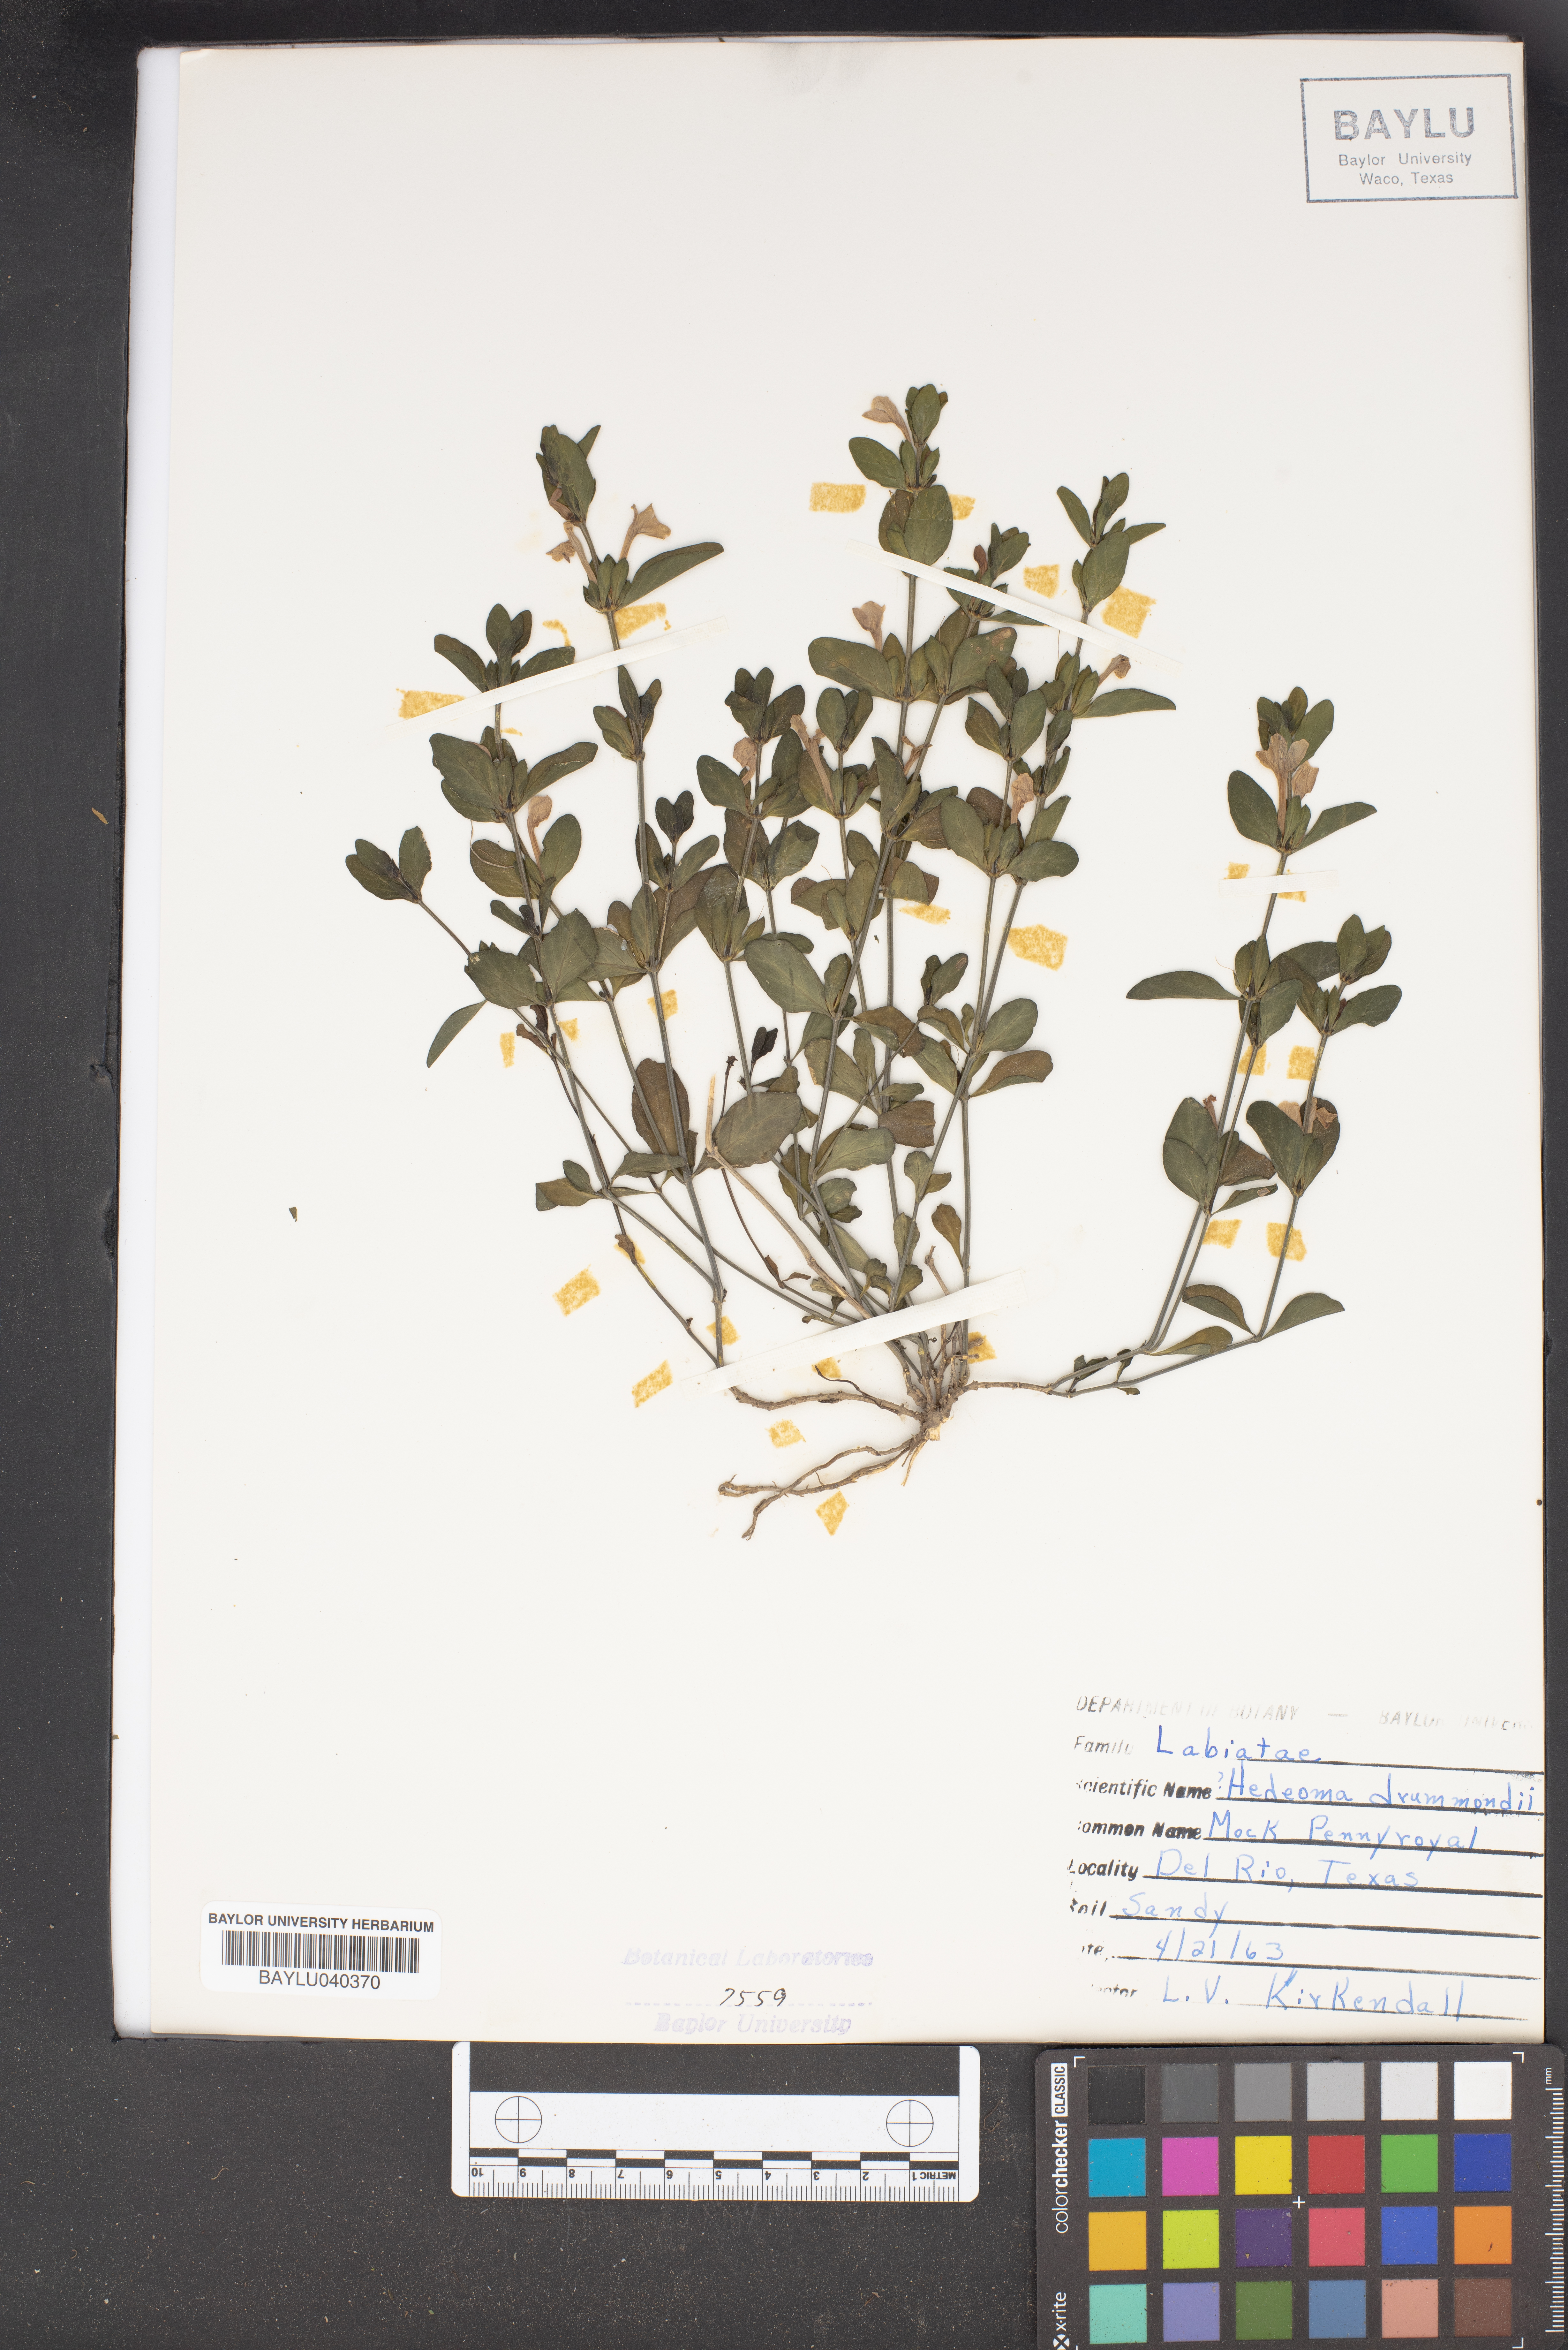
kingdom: Plantae
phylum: Tracheophyta
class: Magnoliopsida
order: Lamiales
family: Lamiaceae
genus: Hedeoma
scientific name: Hedeoma drummondii
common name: New mexico pennyroyal
